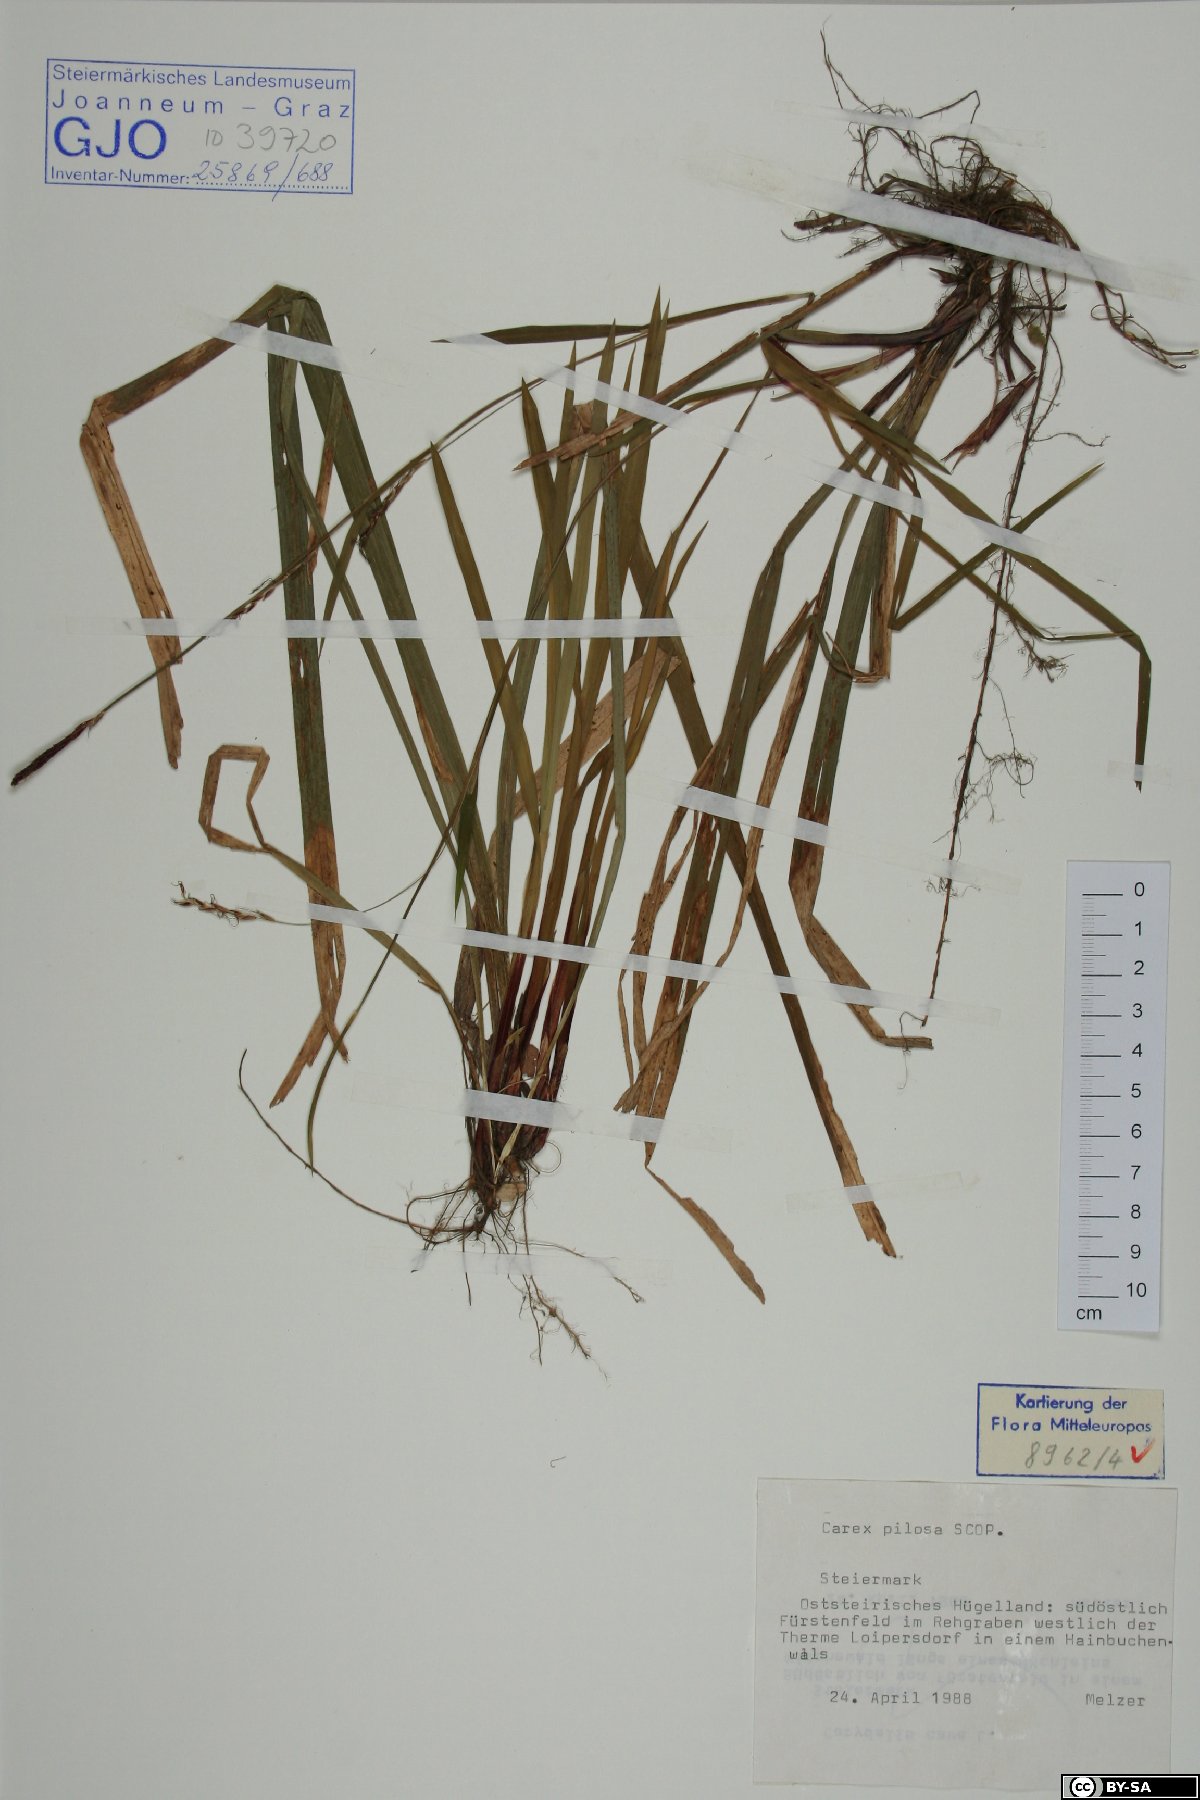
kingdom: Plantae
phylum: Tracheophyta
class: Liliopsida
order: Poales
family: Cyperaceae
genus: Carex
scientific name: Carex pilosa
